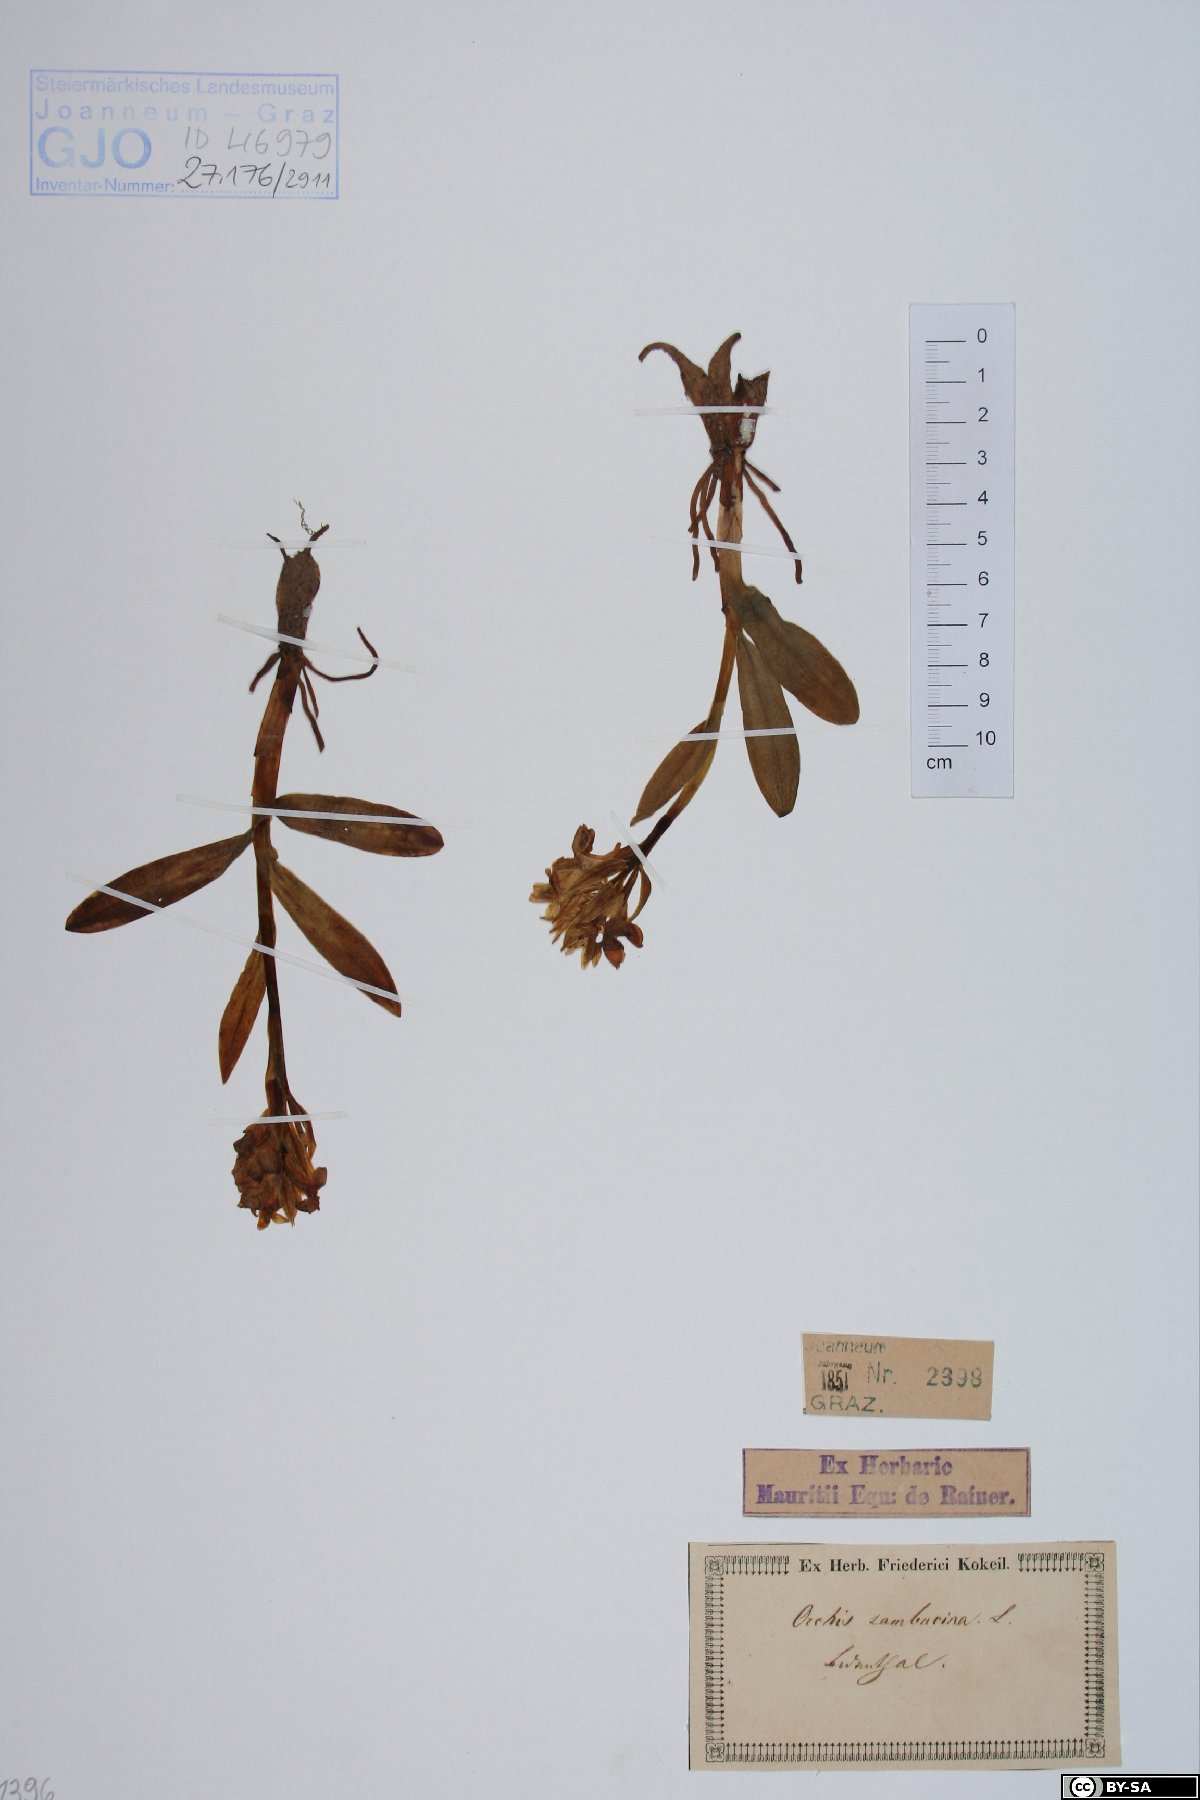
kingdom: Plantae
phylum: Tracheophyta
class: Liliopsida
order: Asparagales
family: Orchidaceae
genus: Dactylorhiza
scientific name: Dactylorhiza sambucina
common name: Elder-flowered orchid
